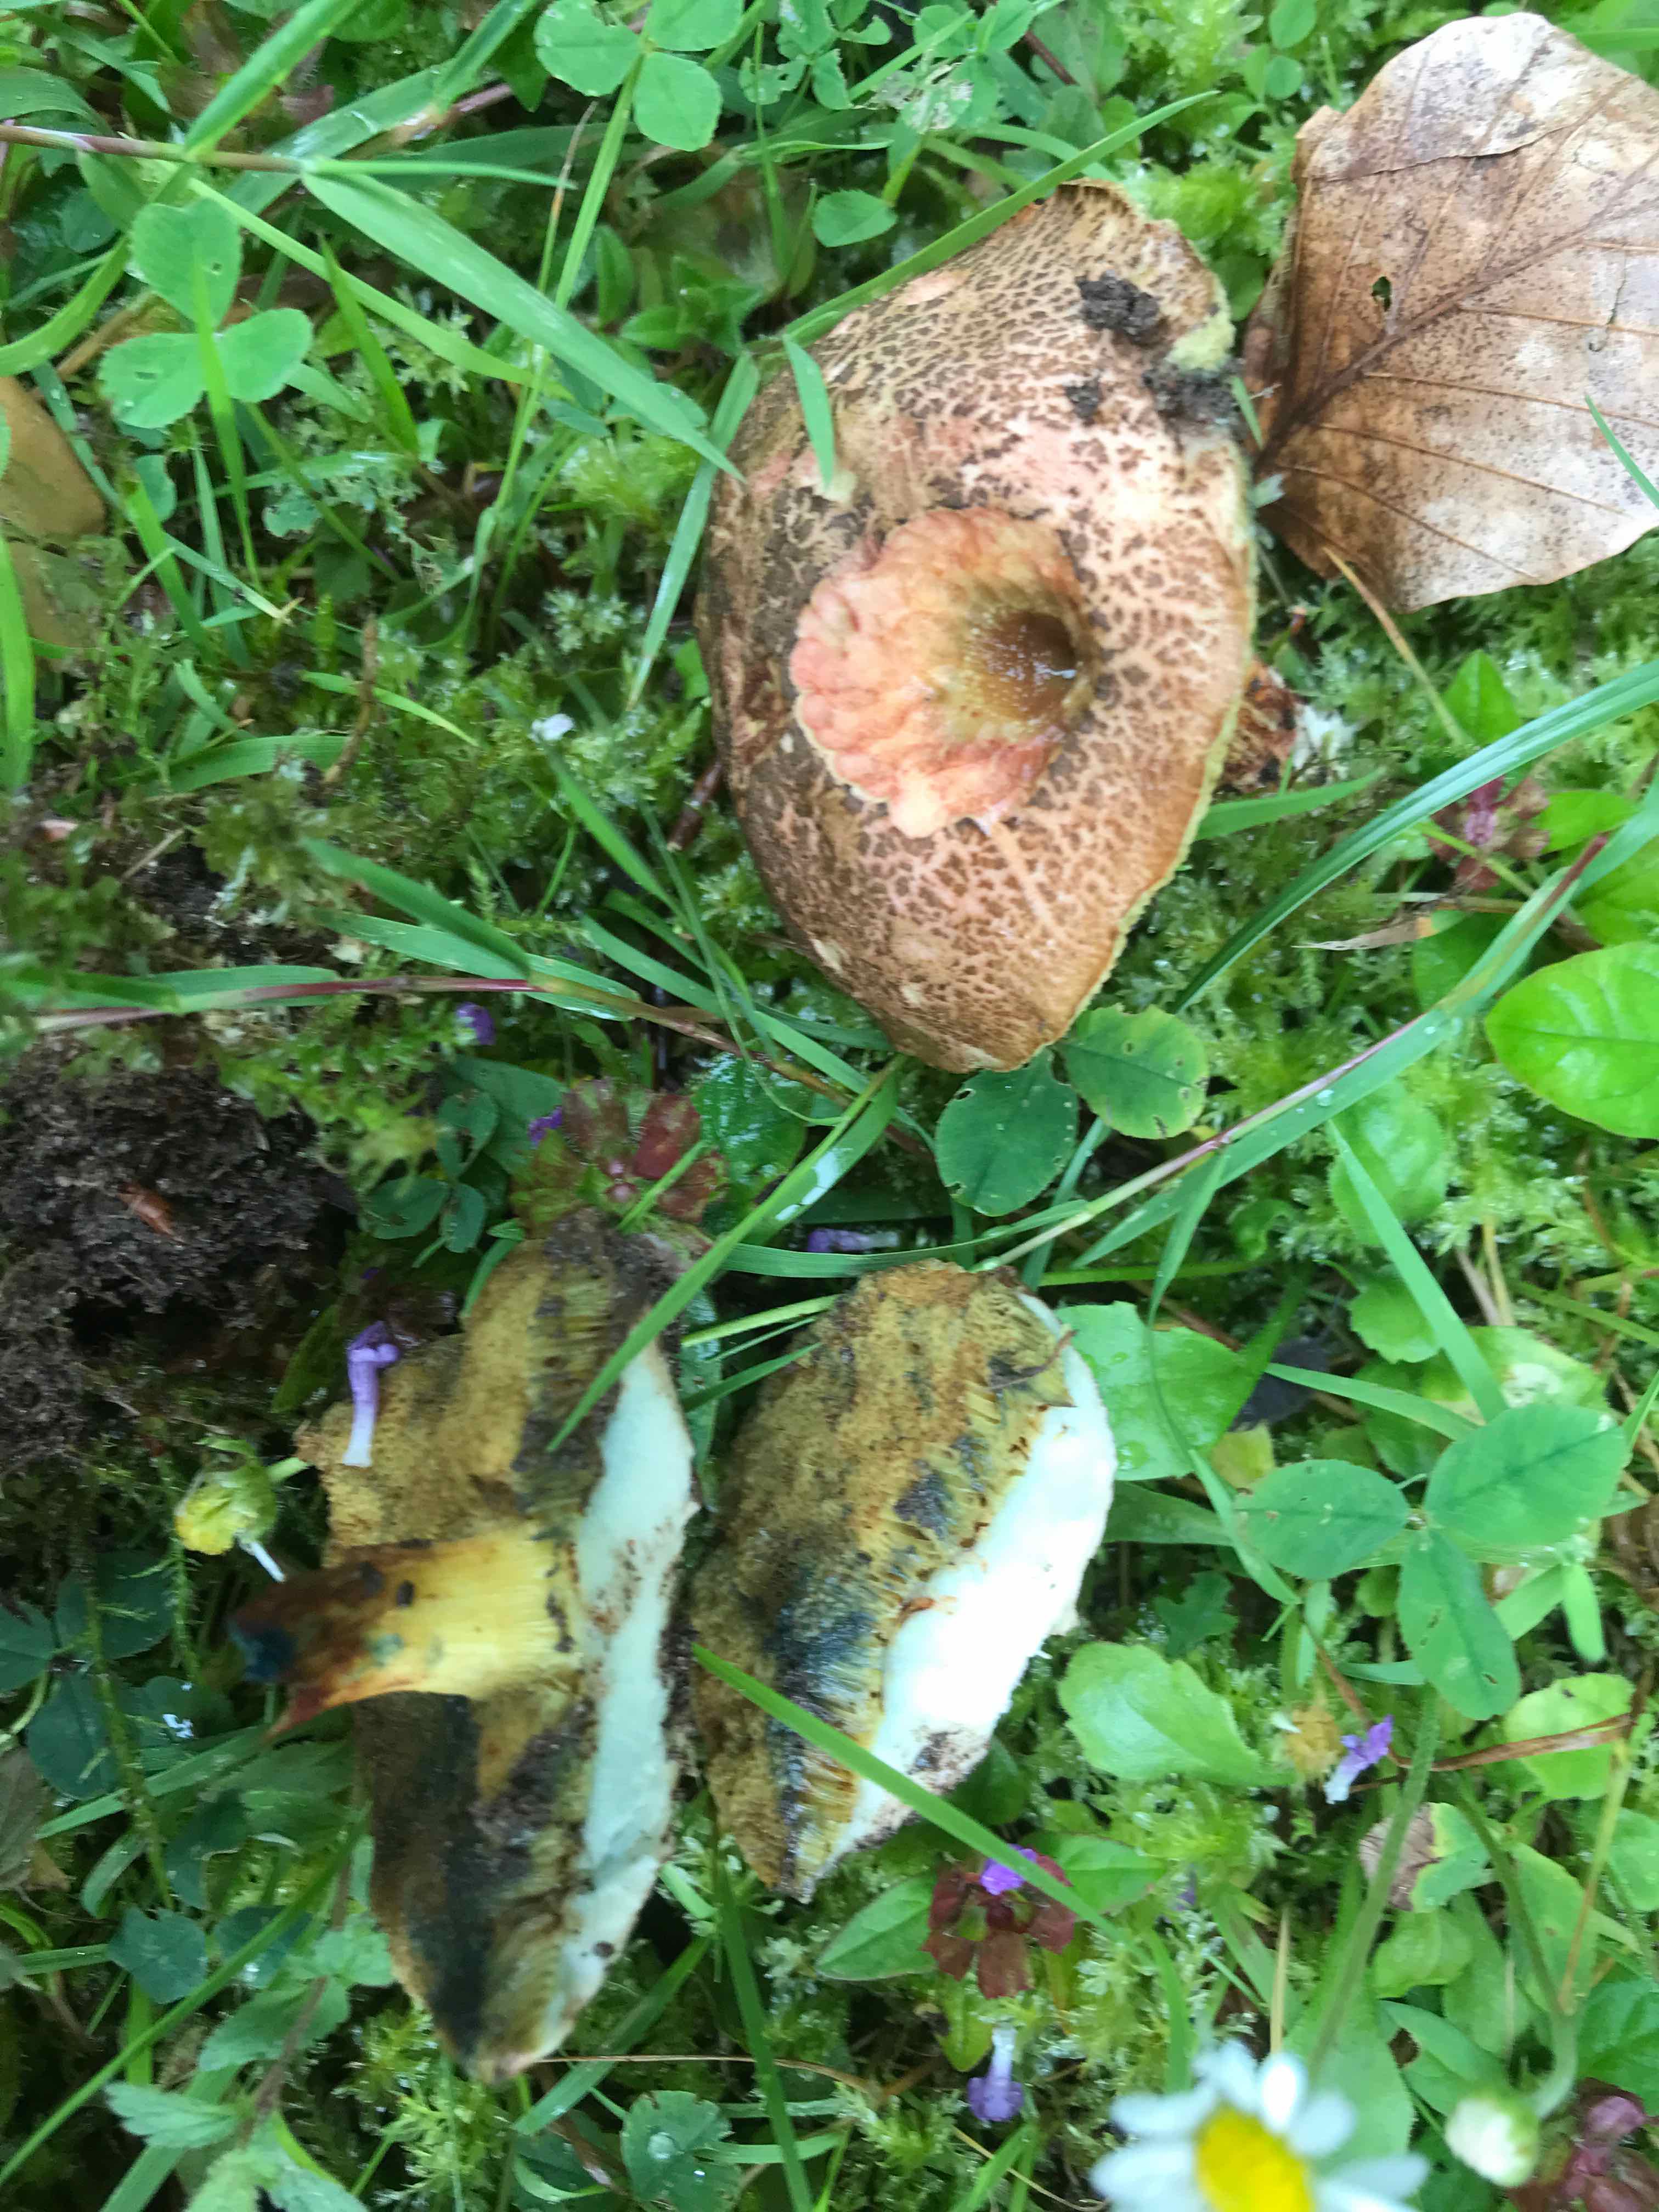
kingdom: Fungi
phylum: Basidiomycota
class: Agaricomycetes
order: Boletales
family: Boletaceae
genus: Xerocomellus
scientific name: Xerocomellus cisalpinus
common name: finsprukken rørhat
